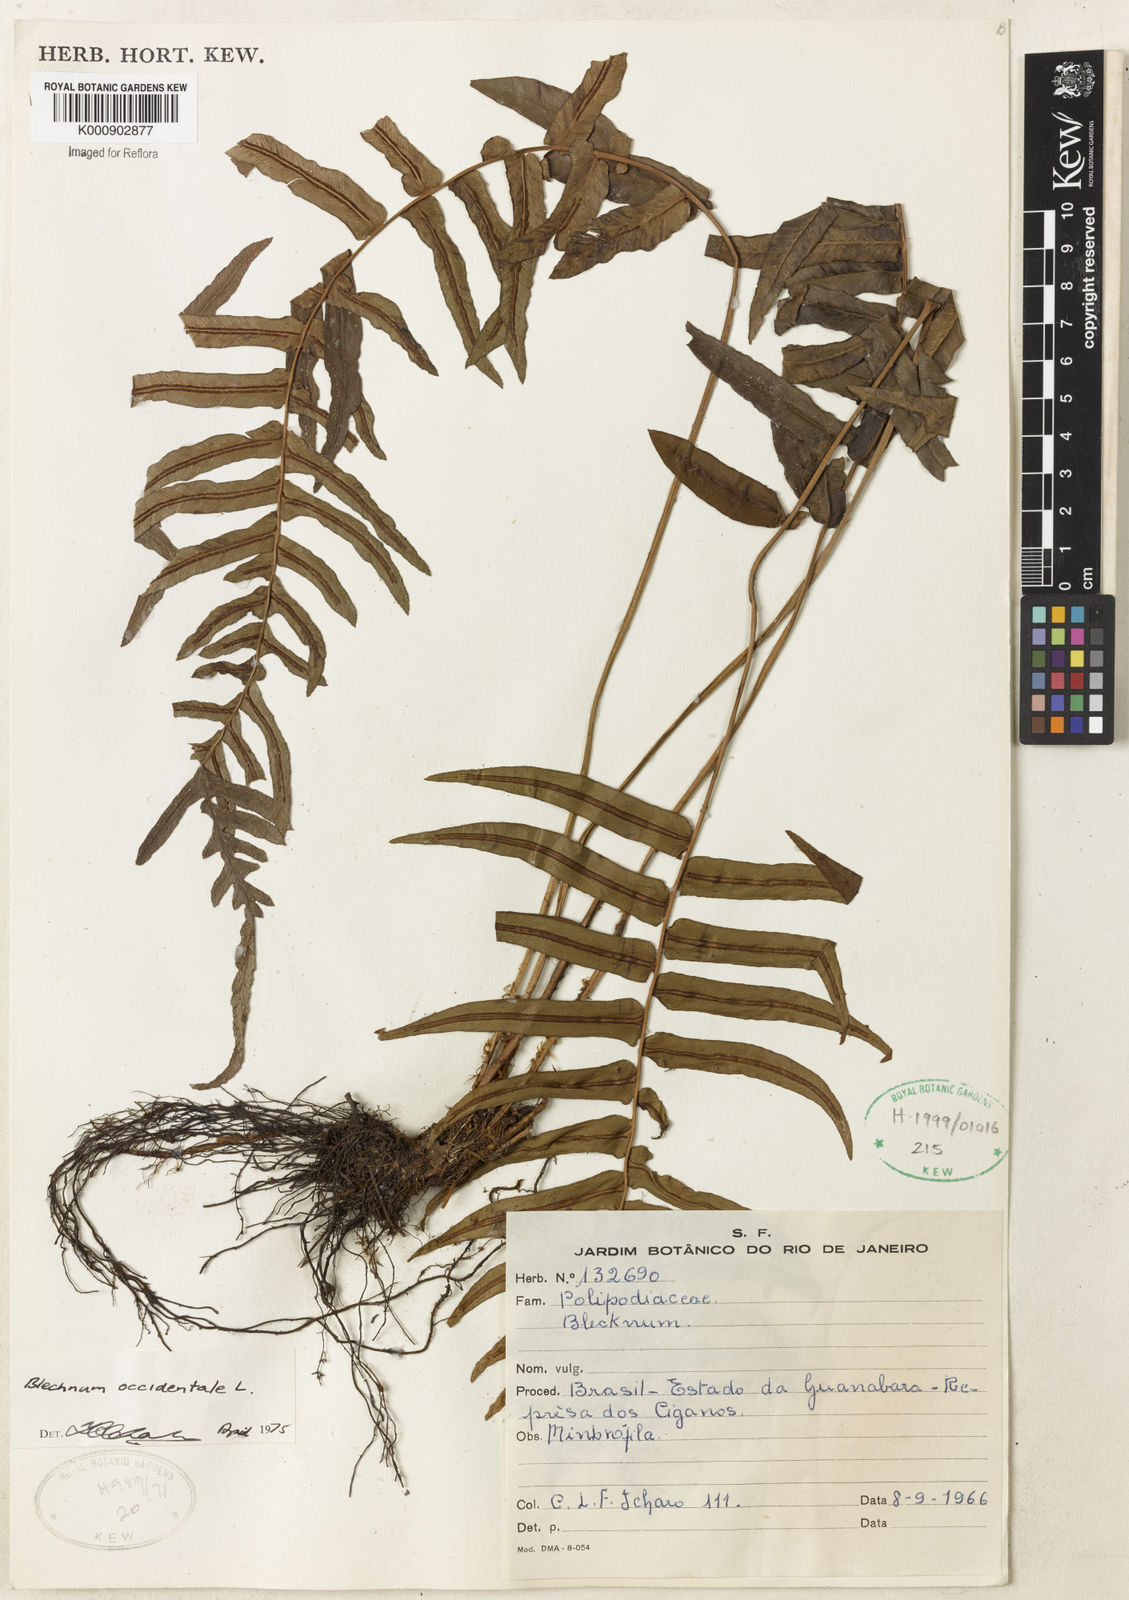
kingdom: Plantae
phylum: Tracheophyta
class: Polypodiopsida
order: Polypodiales
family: Blechnaceae
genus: Blechnum
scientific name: Blechnum occidentale
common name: Hammock fern
